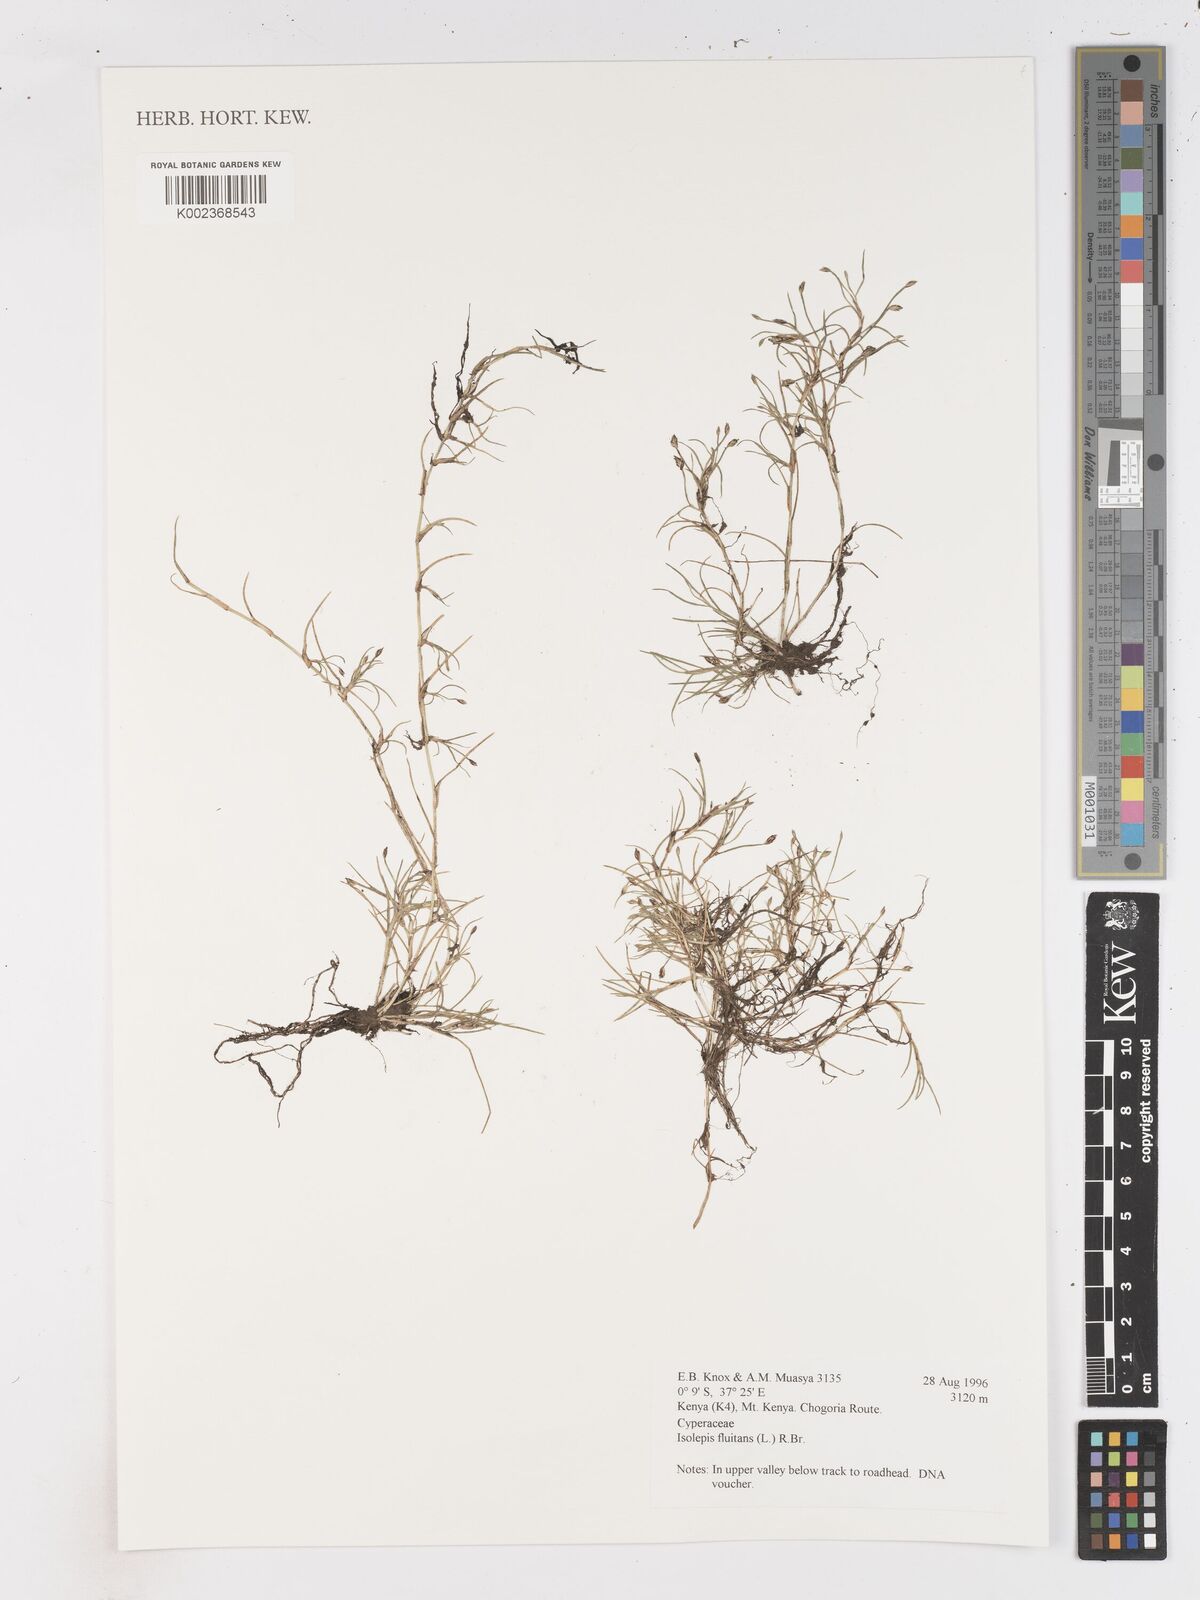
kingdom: Plantae
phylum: Tracheophyta
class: Liliopsida
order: Poales
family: Cyperaceae
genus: Isolepis
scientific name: Isolepis fluitans
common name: Floating club-rush
